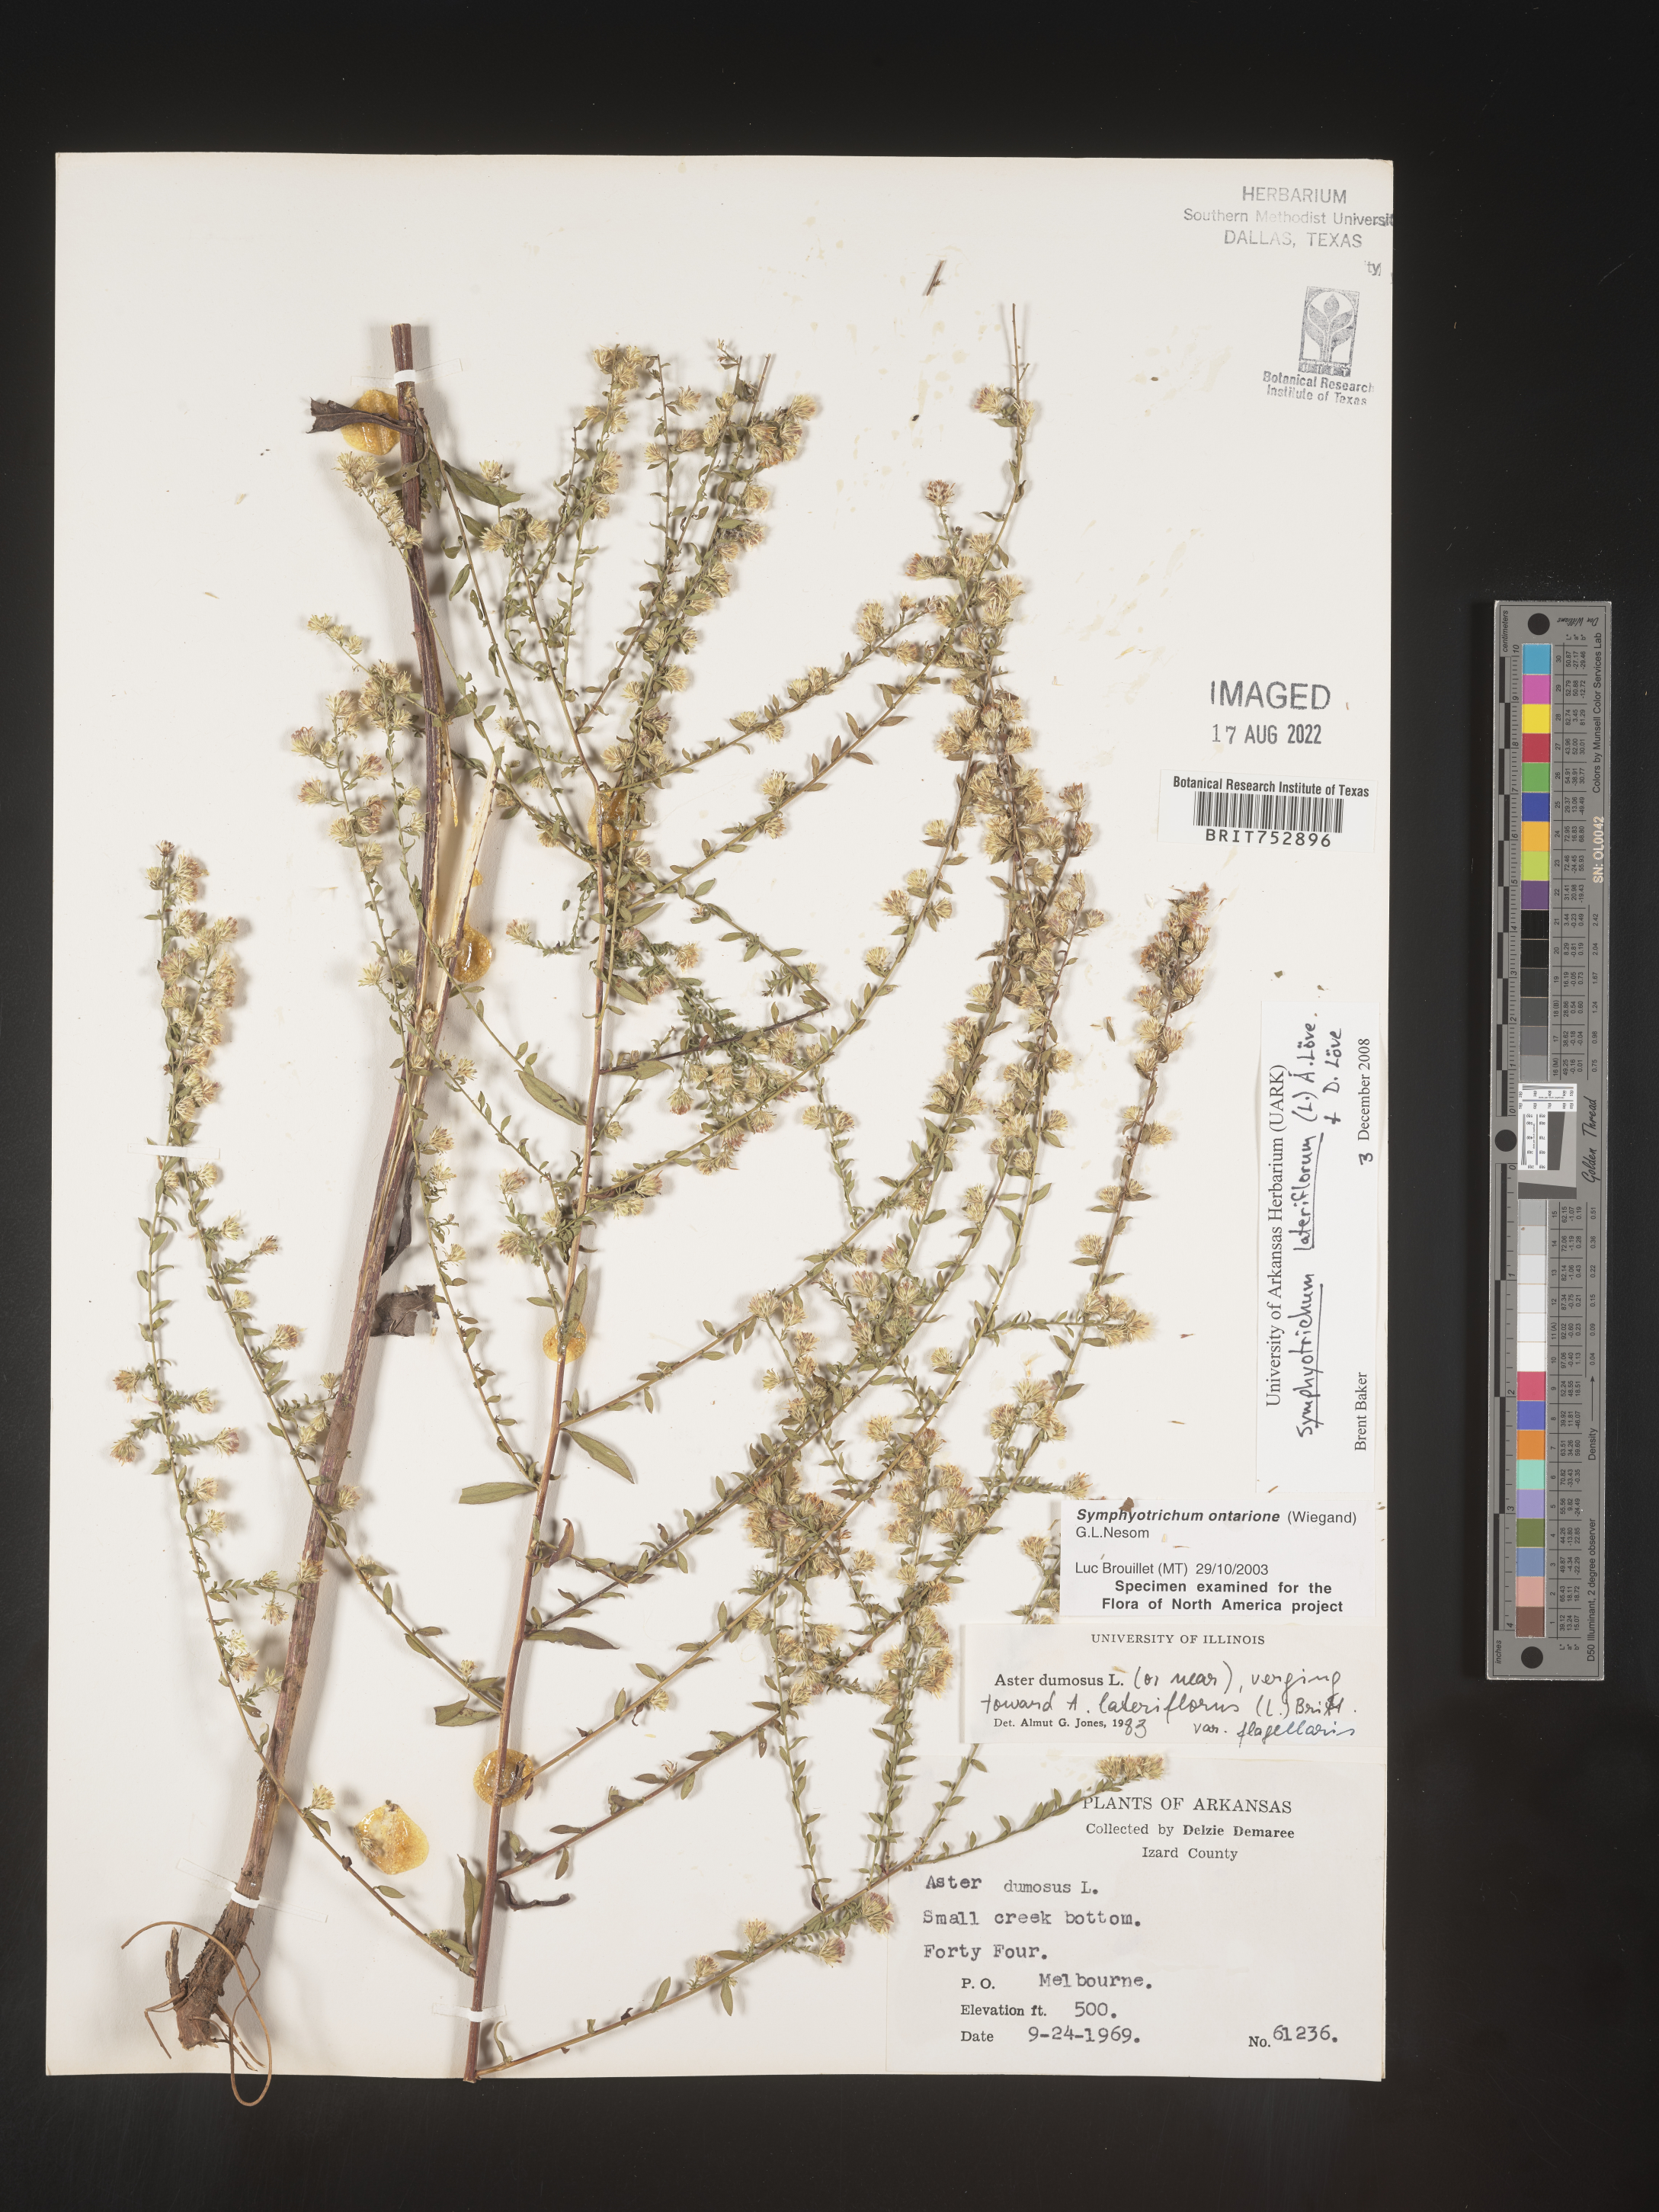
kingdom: Plantae
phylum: Tracheophyta
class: Magnoliopsida
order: Asterales
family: Asteraceae
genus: Symphyotrichum
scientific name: Symphyotrichum lateriflorum
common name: Calico aster
